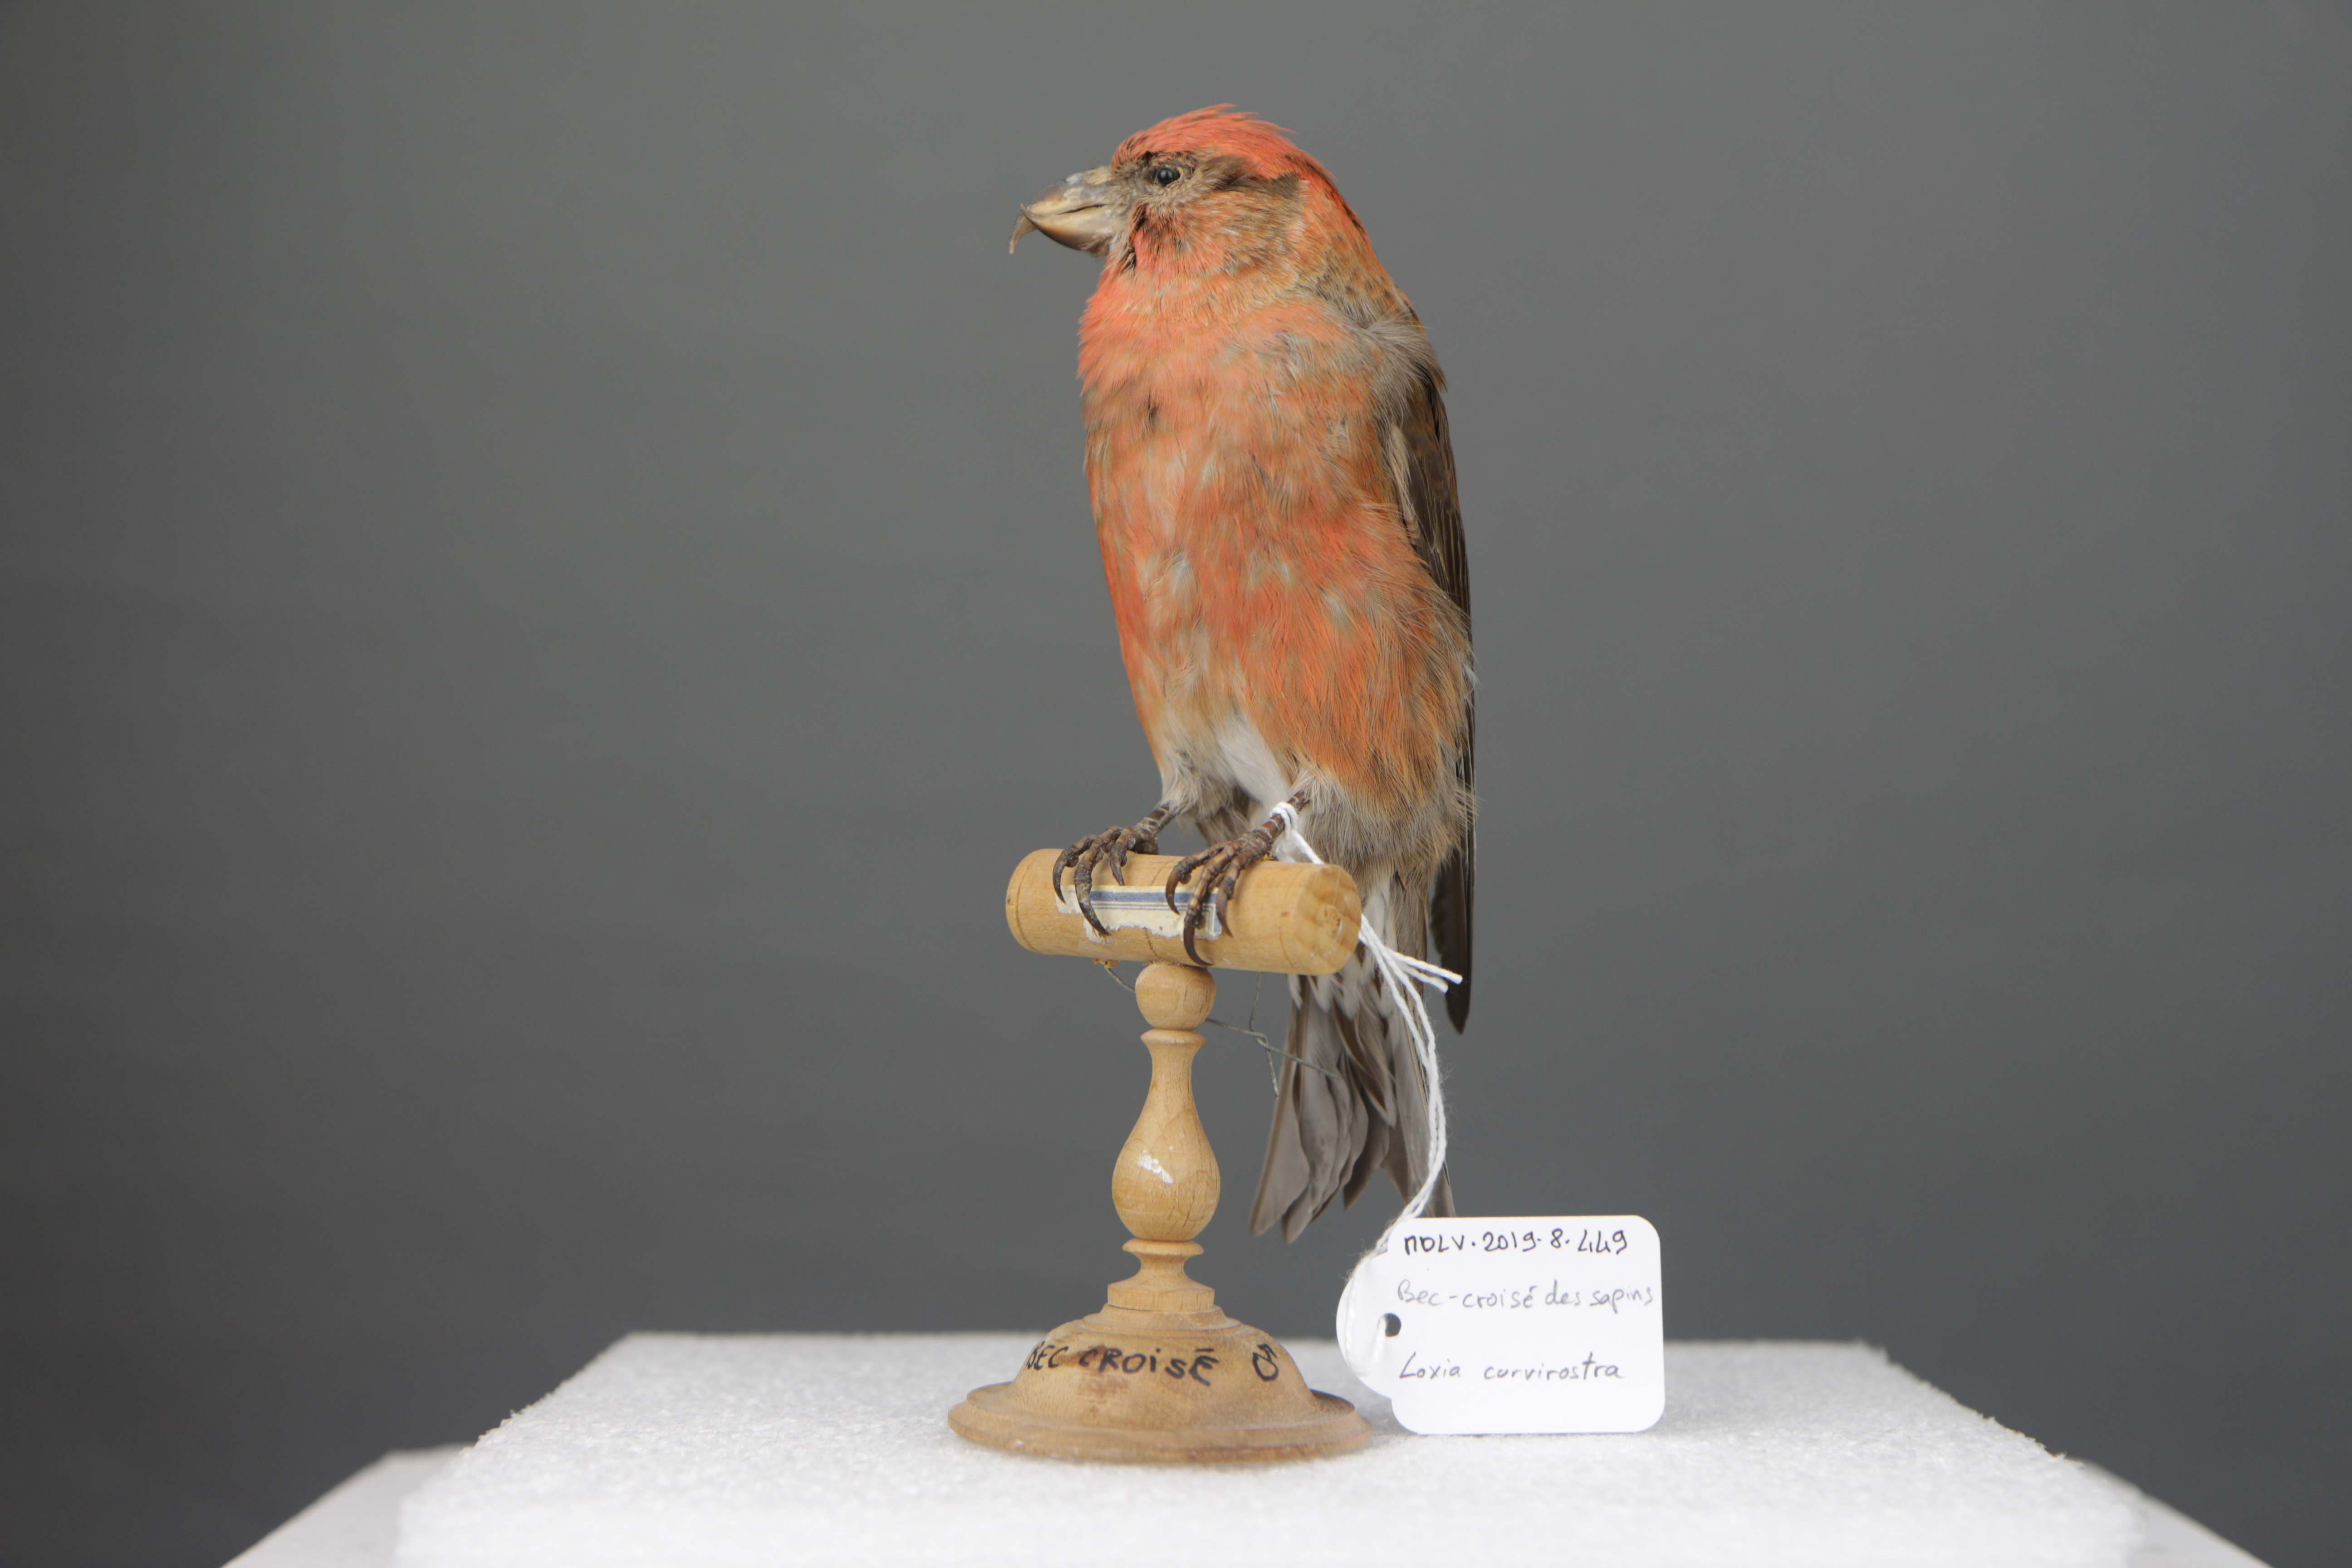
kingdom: Animalia
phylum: Chordata
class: Aves
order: Passeriformes
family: Fringillidae
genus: Loxia
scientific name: Loxia curvirostra
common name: Red crossbill
